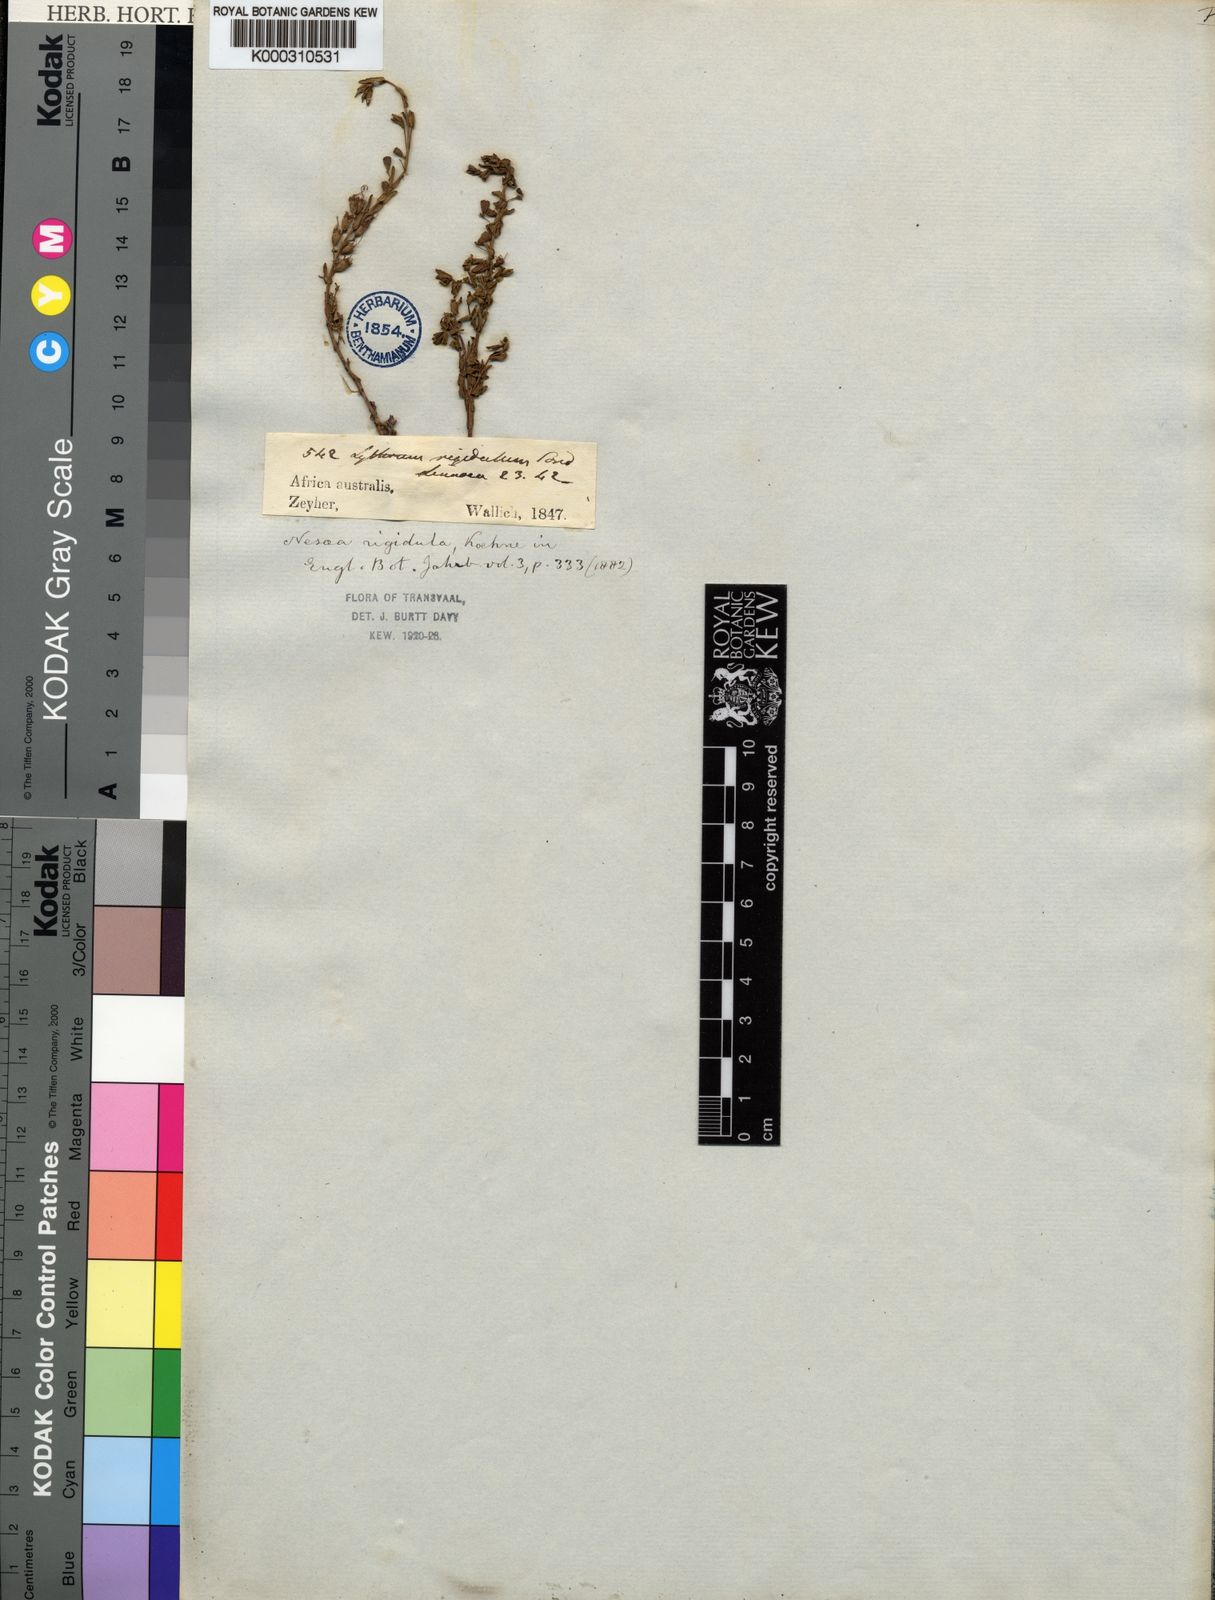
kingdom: Plantae
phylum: Tracheophyta
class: Magnoliopsida
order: Myrtales
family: Lythraceae
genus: Ammannia
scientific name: Ammannia rigidula
